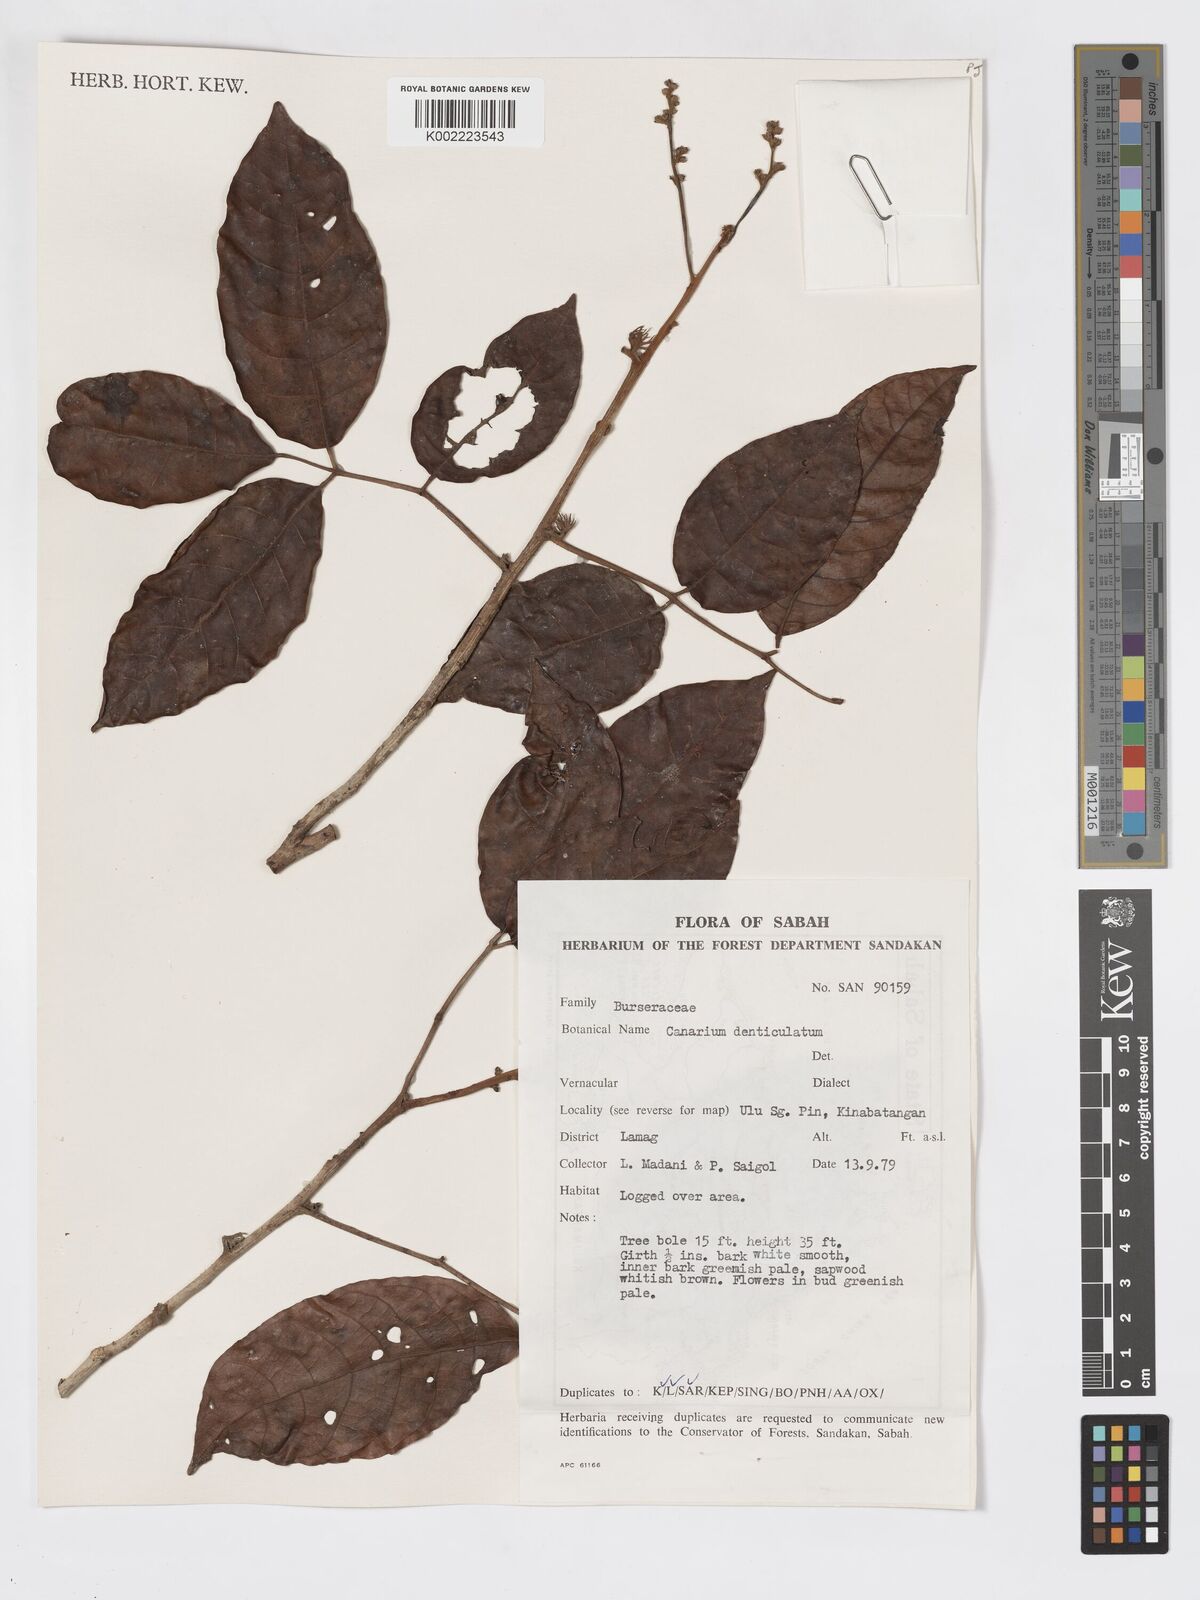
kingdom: Plantae
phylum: Tracheophyta
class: Magnoliopsida
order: Sapindales
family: Burseraceae
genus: Canarium
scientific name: Canarium denticulatum
